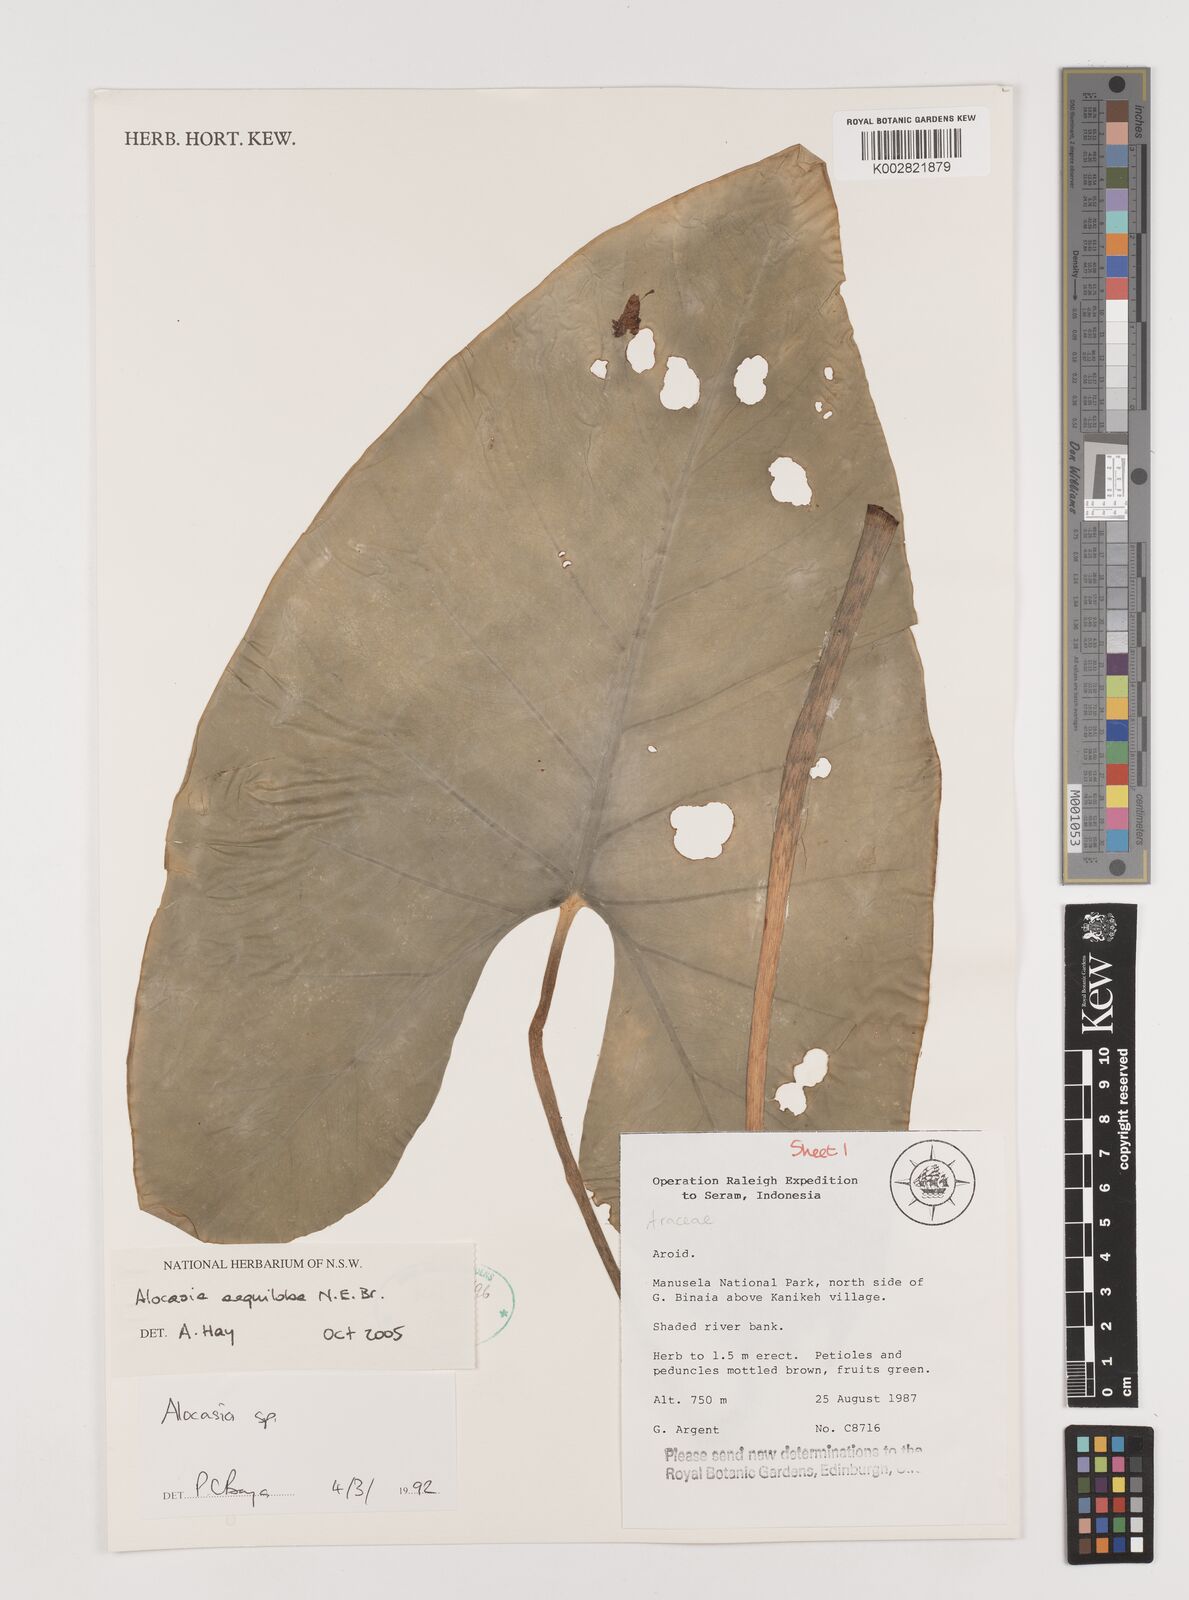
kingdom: Plantae
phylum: Tracheophyta
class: Liliopsida
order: Alismatales
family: Araceae
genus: Alocasia
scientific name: Alocasia
